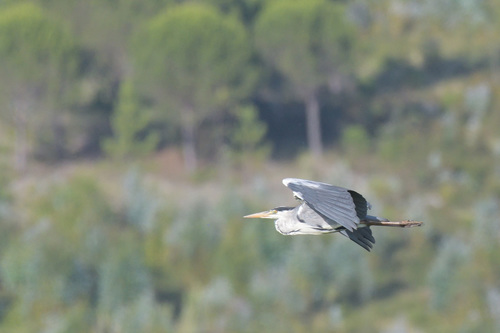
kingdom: Animalia
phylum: Chordata
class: Aves
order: Pelecaniformes
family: Ardeidae
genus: Ardea
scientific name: Ardea cinerea
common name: Grey heron
